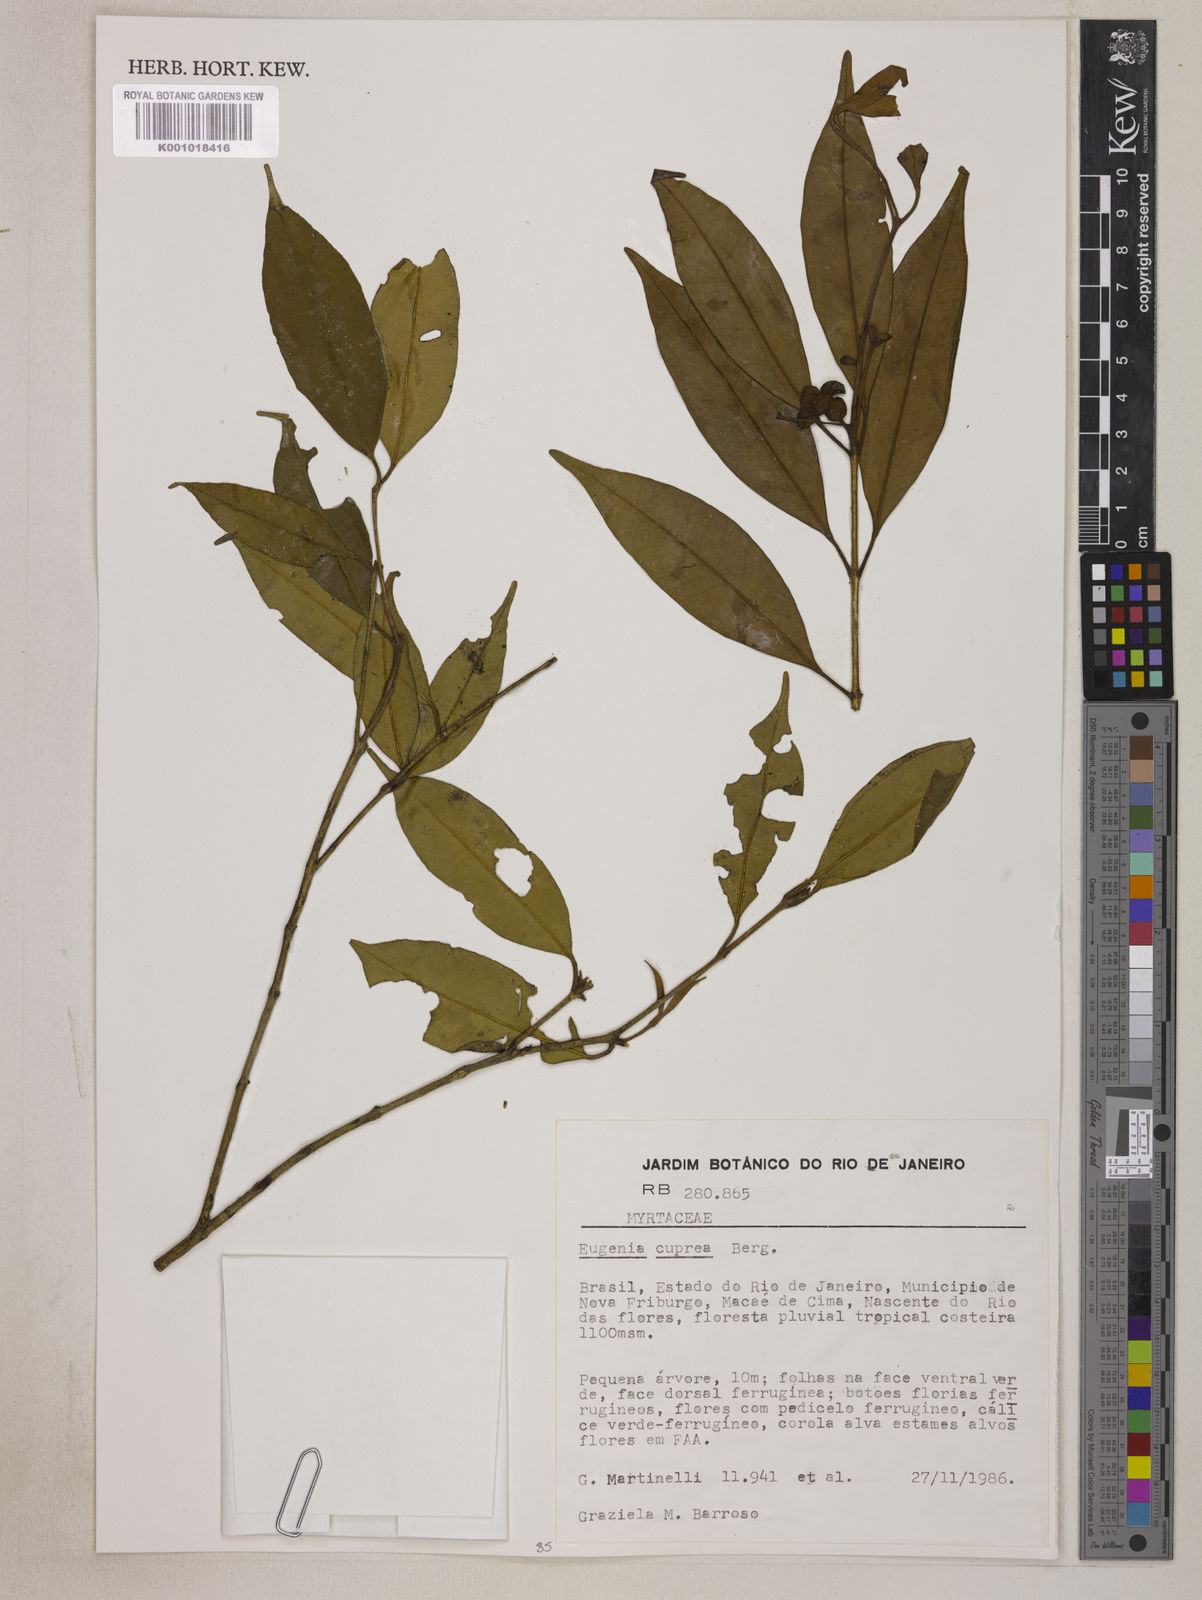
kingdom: Plantae
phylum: Tracheophyta
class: Magnoliopsida
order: Myrtales
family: Myrtaceae
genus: Eugenia
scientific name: Eugenia cuprea
